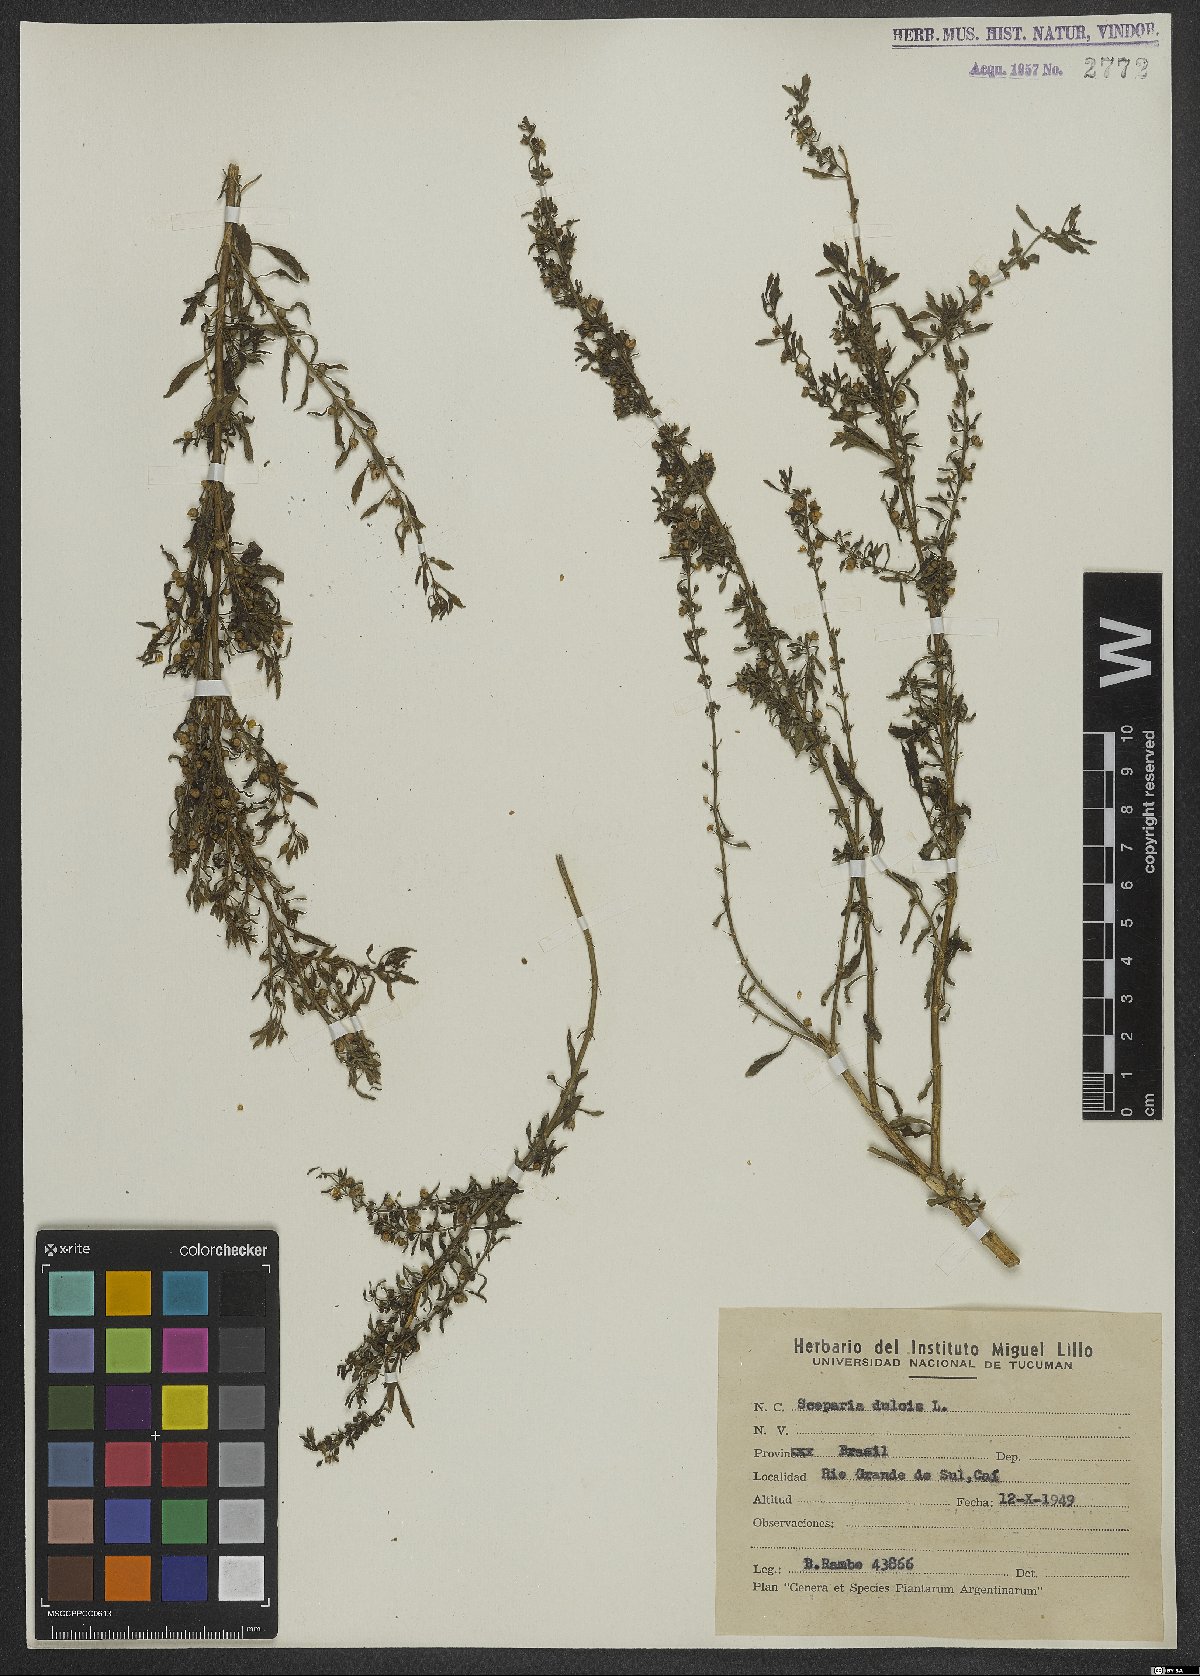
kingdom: Plantae
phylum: Tracheophyta
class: Magnoliopsida
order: Lamiales
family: Plantaginaceae
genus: Scoparia
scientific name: Scoparia dulcis
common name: Scoparia-weed
